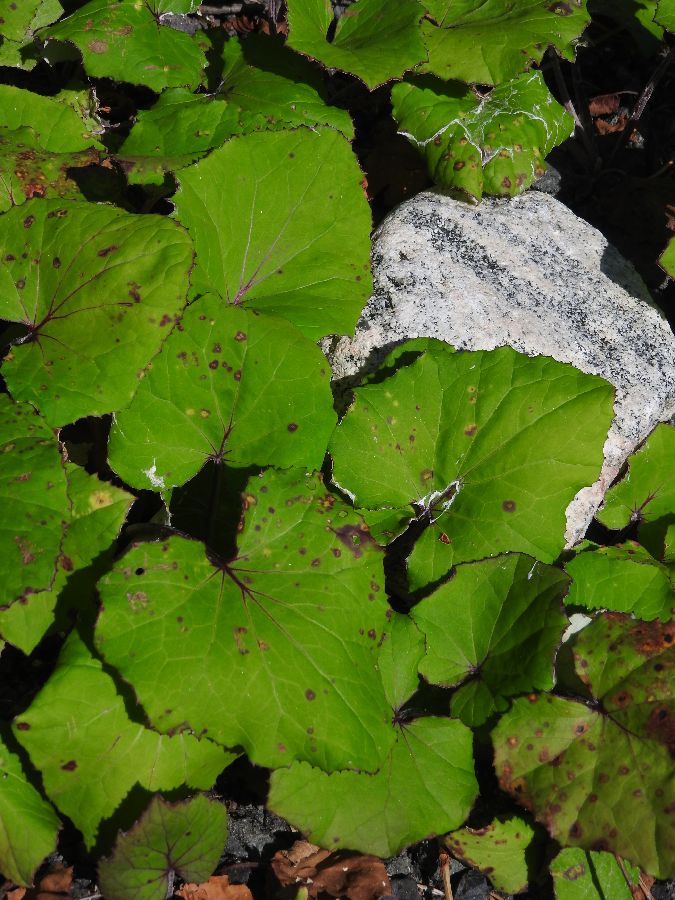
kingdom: Plantae
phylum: Tracheophyta
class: Magnoliopsida
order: Asterales
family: Asteraceae
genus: Tussilago
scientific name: Tussilago farfara
